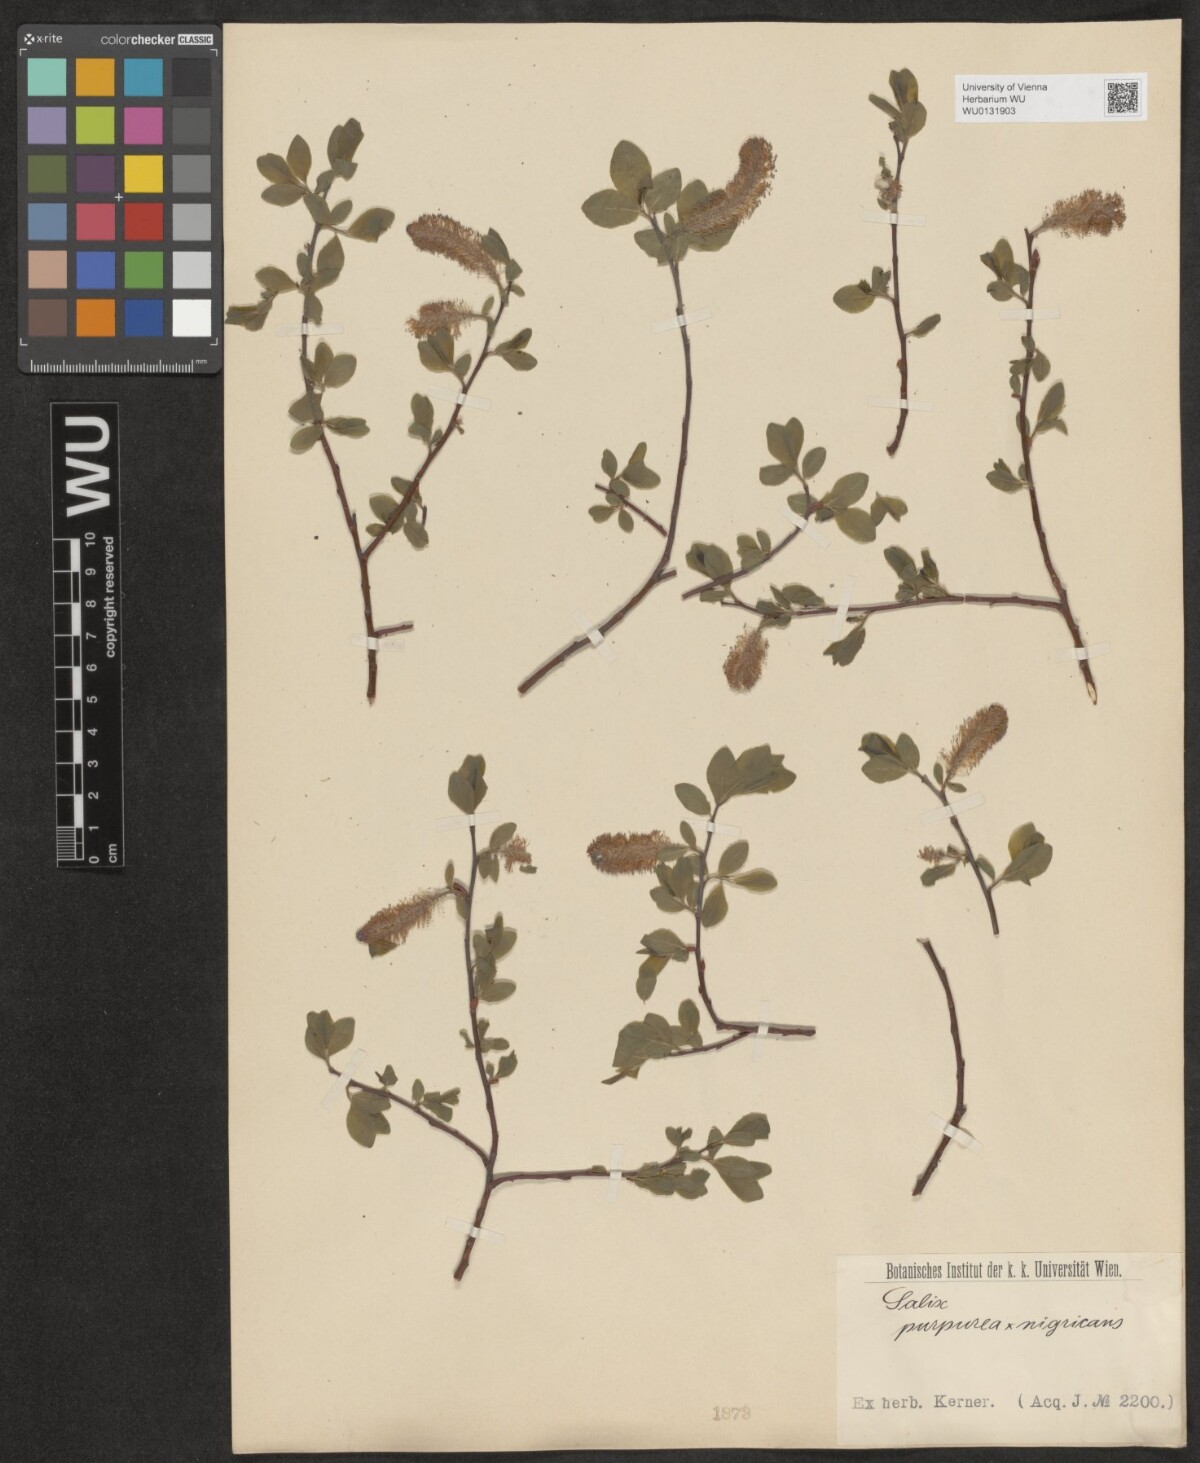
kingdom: Plantae
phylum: Tracheophyta
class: Magnoliopsida
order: Malpighiales
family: Salicaceae
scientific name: Salicaceae
